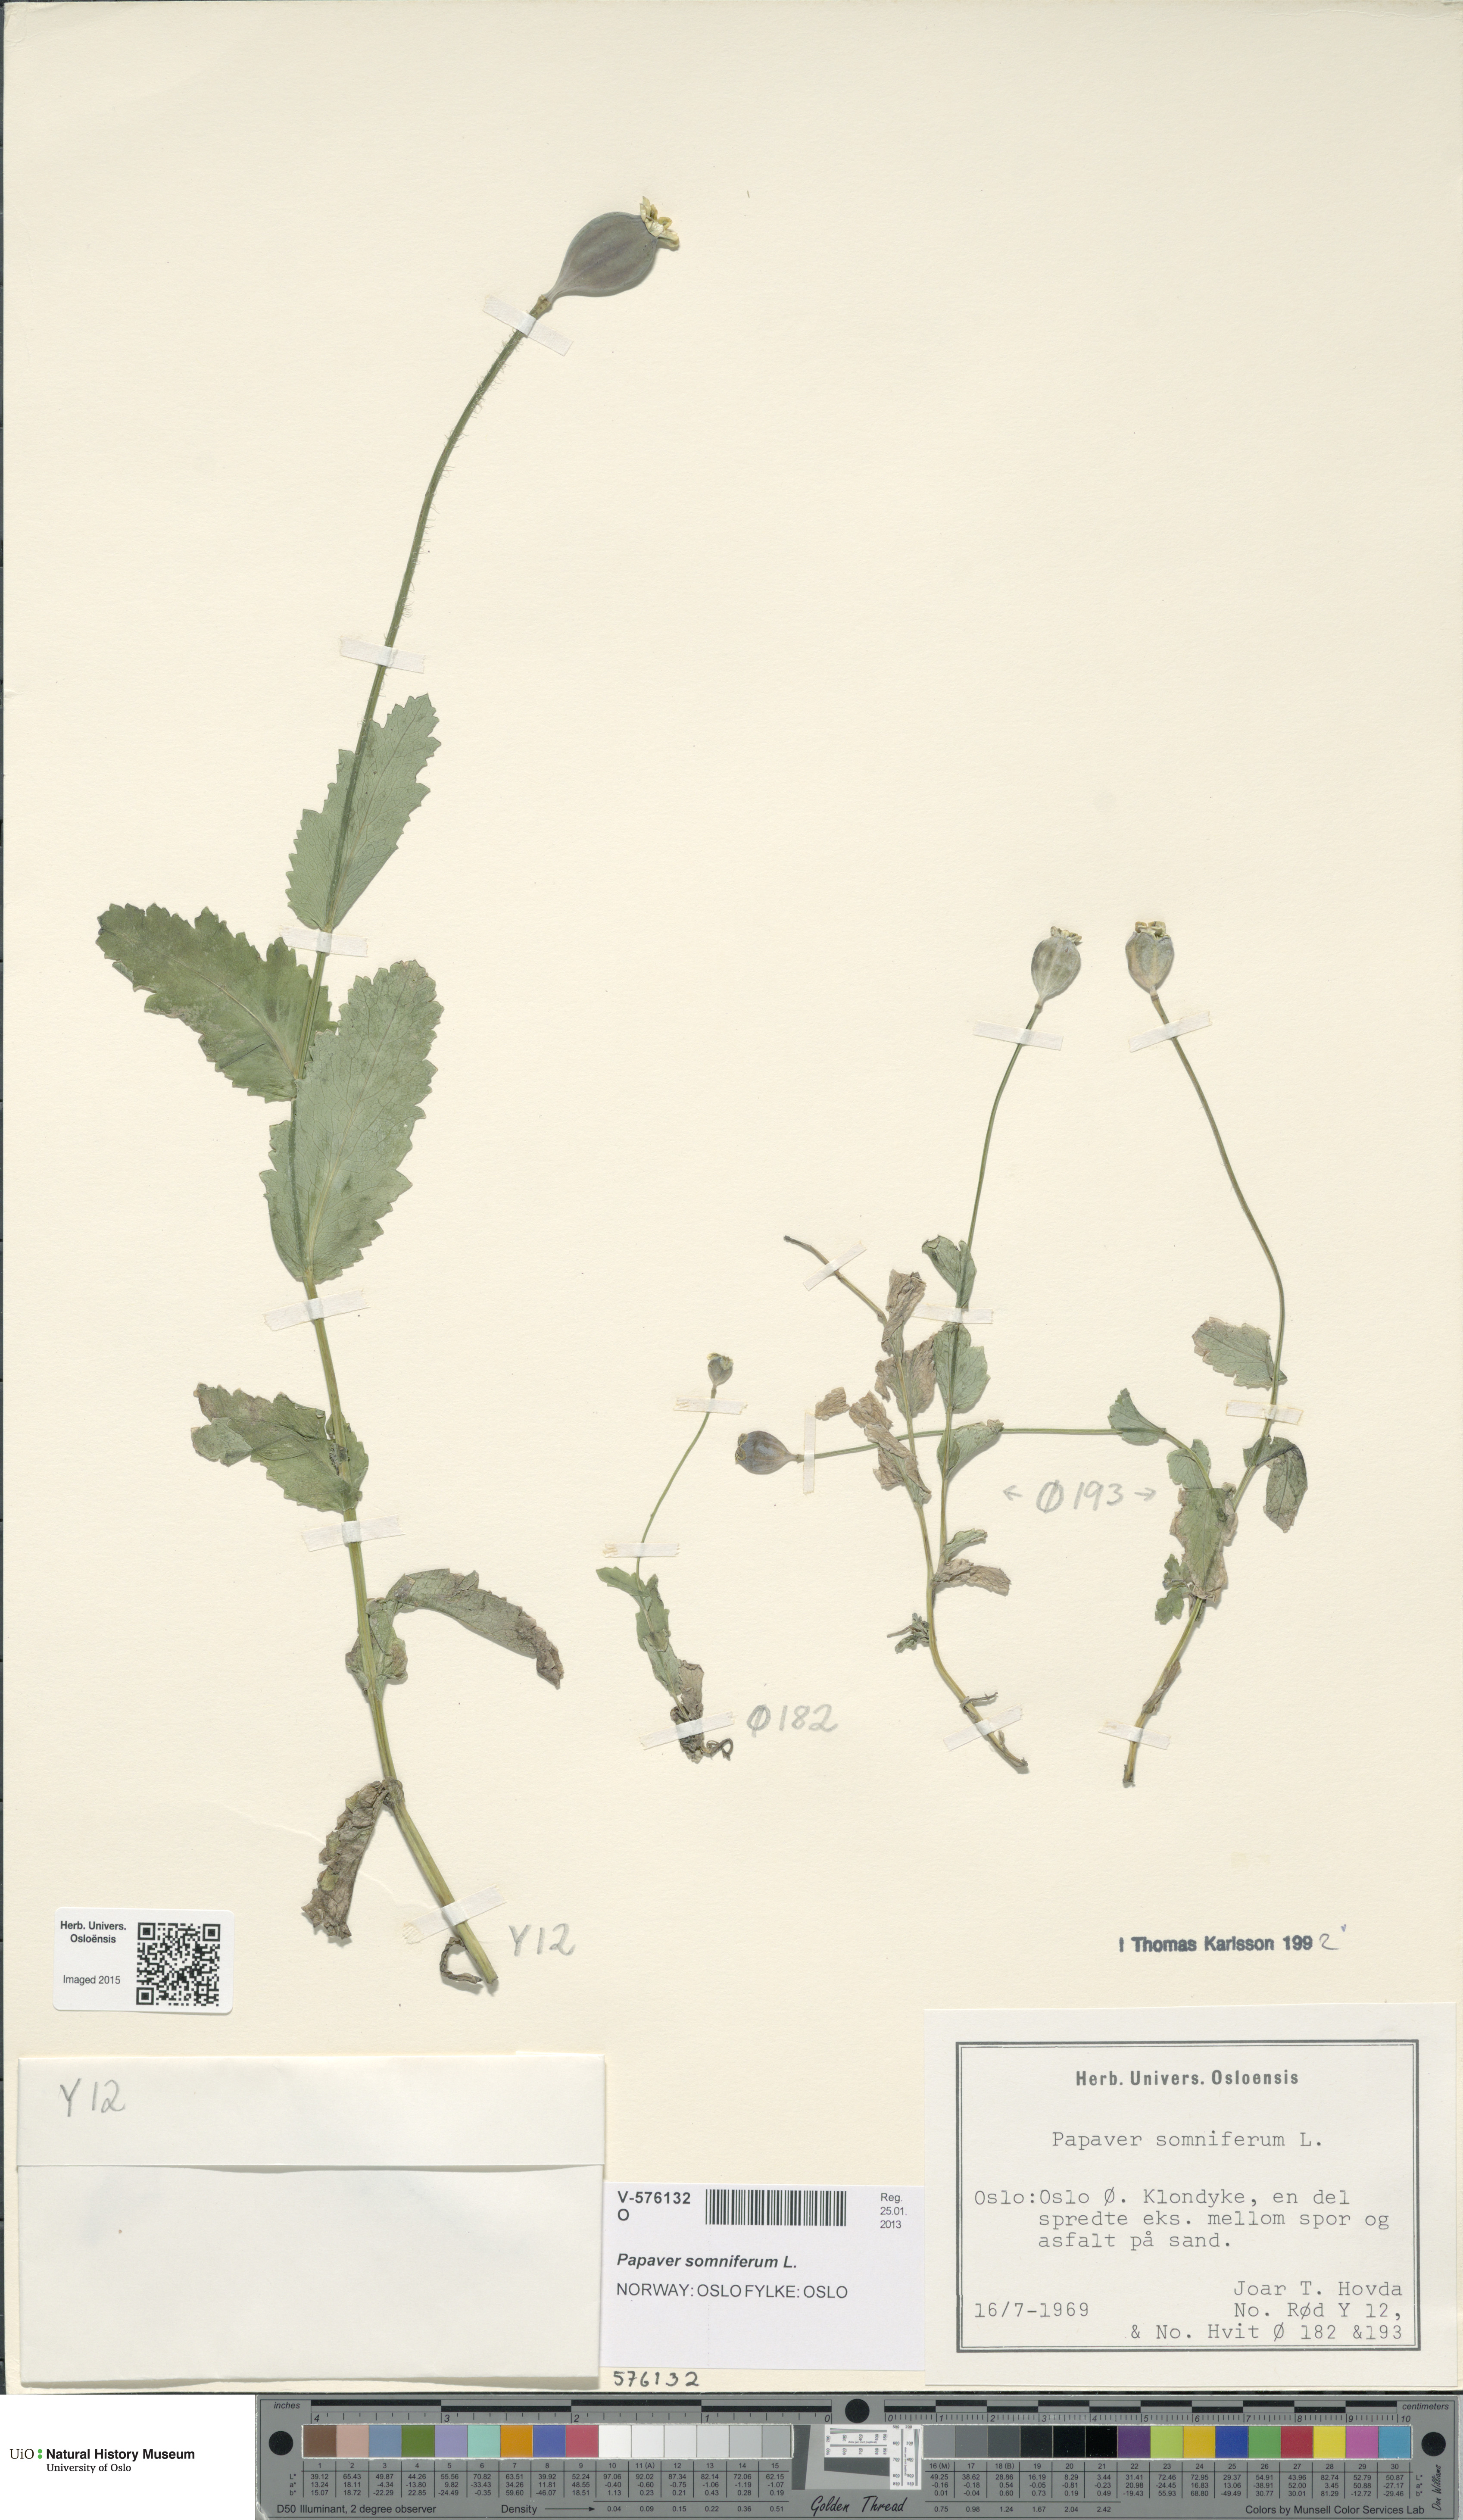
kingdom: Plantae
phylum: Tracheophyta
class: Magnoliopsida
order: Ranunculales
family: Papaveraceae
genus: Papaver
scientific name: Papaver somniferum
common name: Opium poppy
